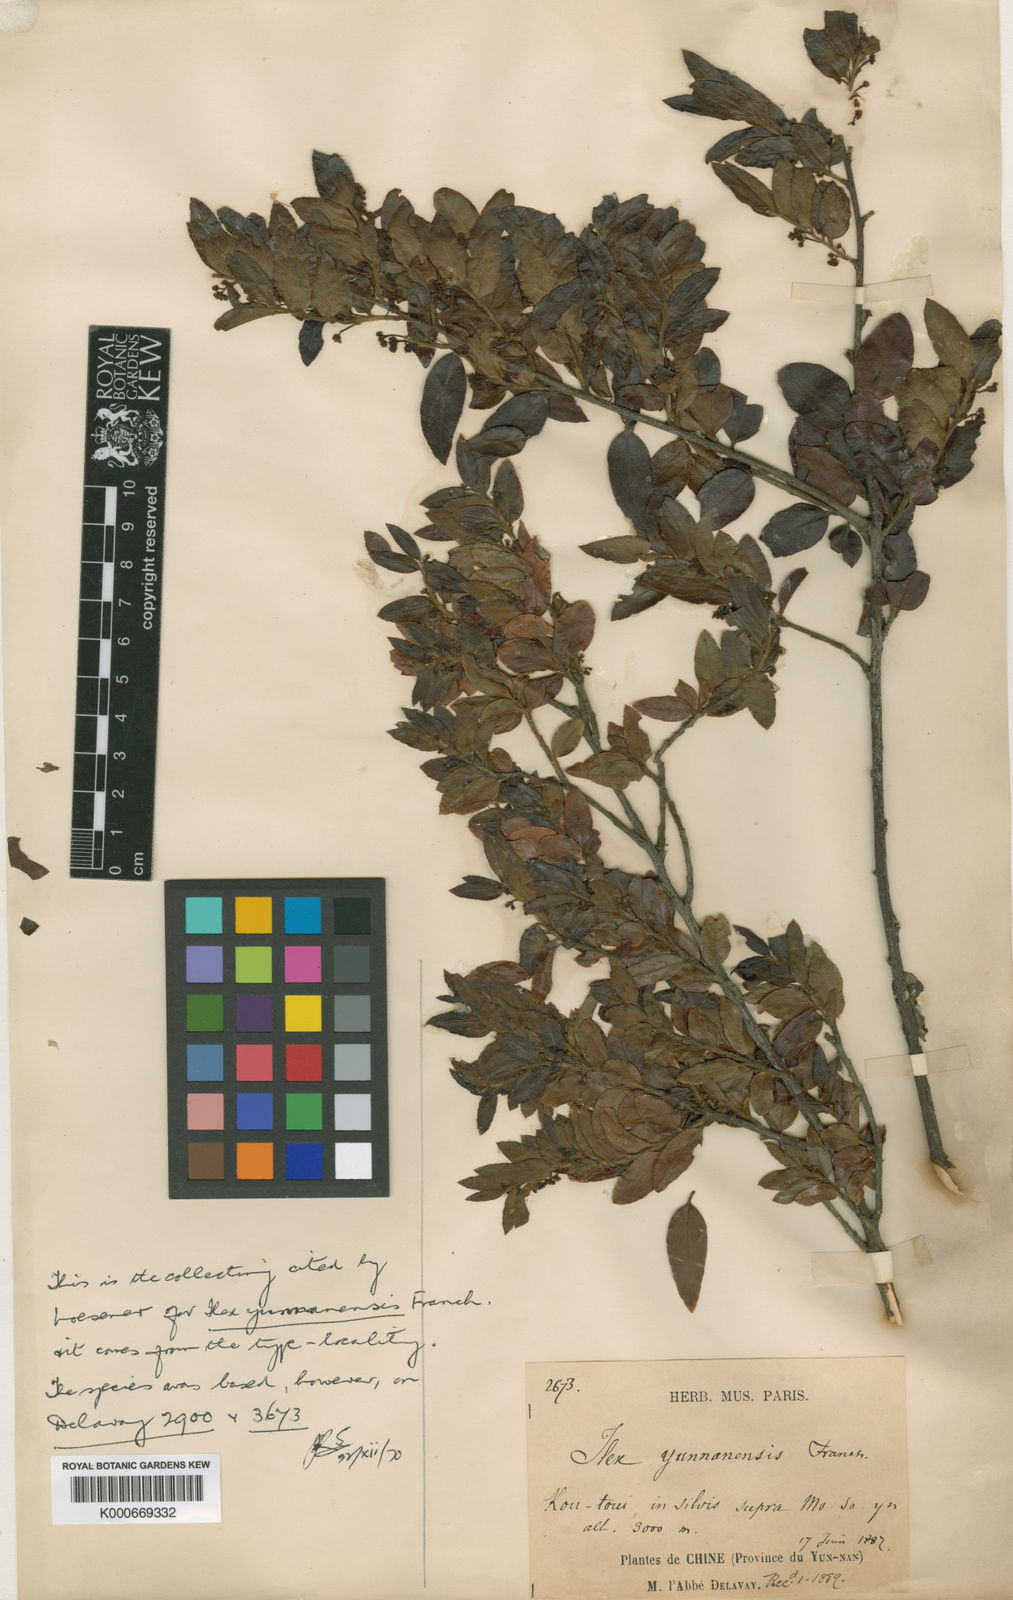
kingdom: Plantae
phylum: Tracheophyta
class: Magnoliopsida
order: Aquifoliales
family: Aquifoliaceae
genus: Ilex
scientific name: Ilex yunnanensis
